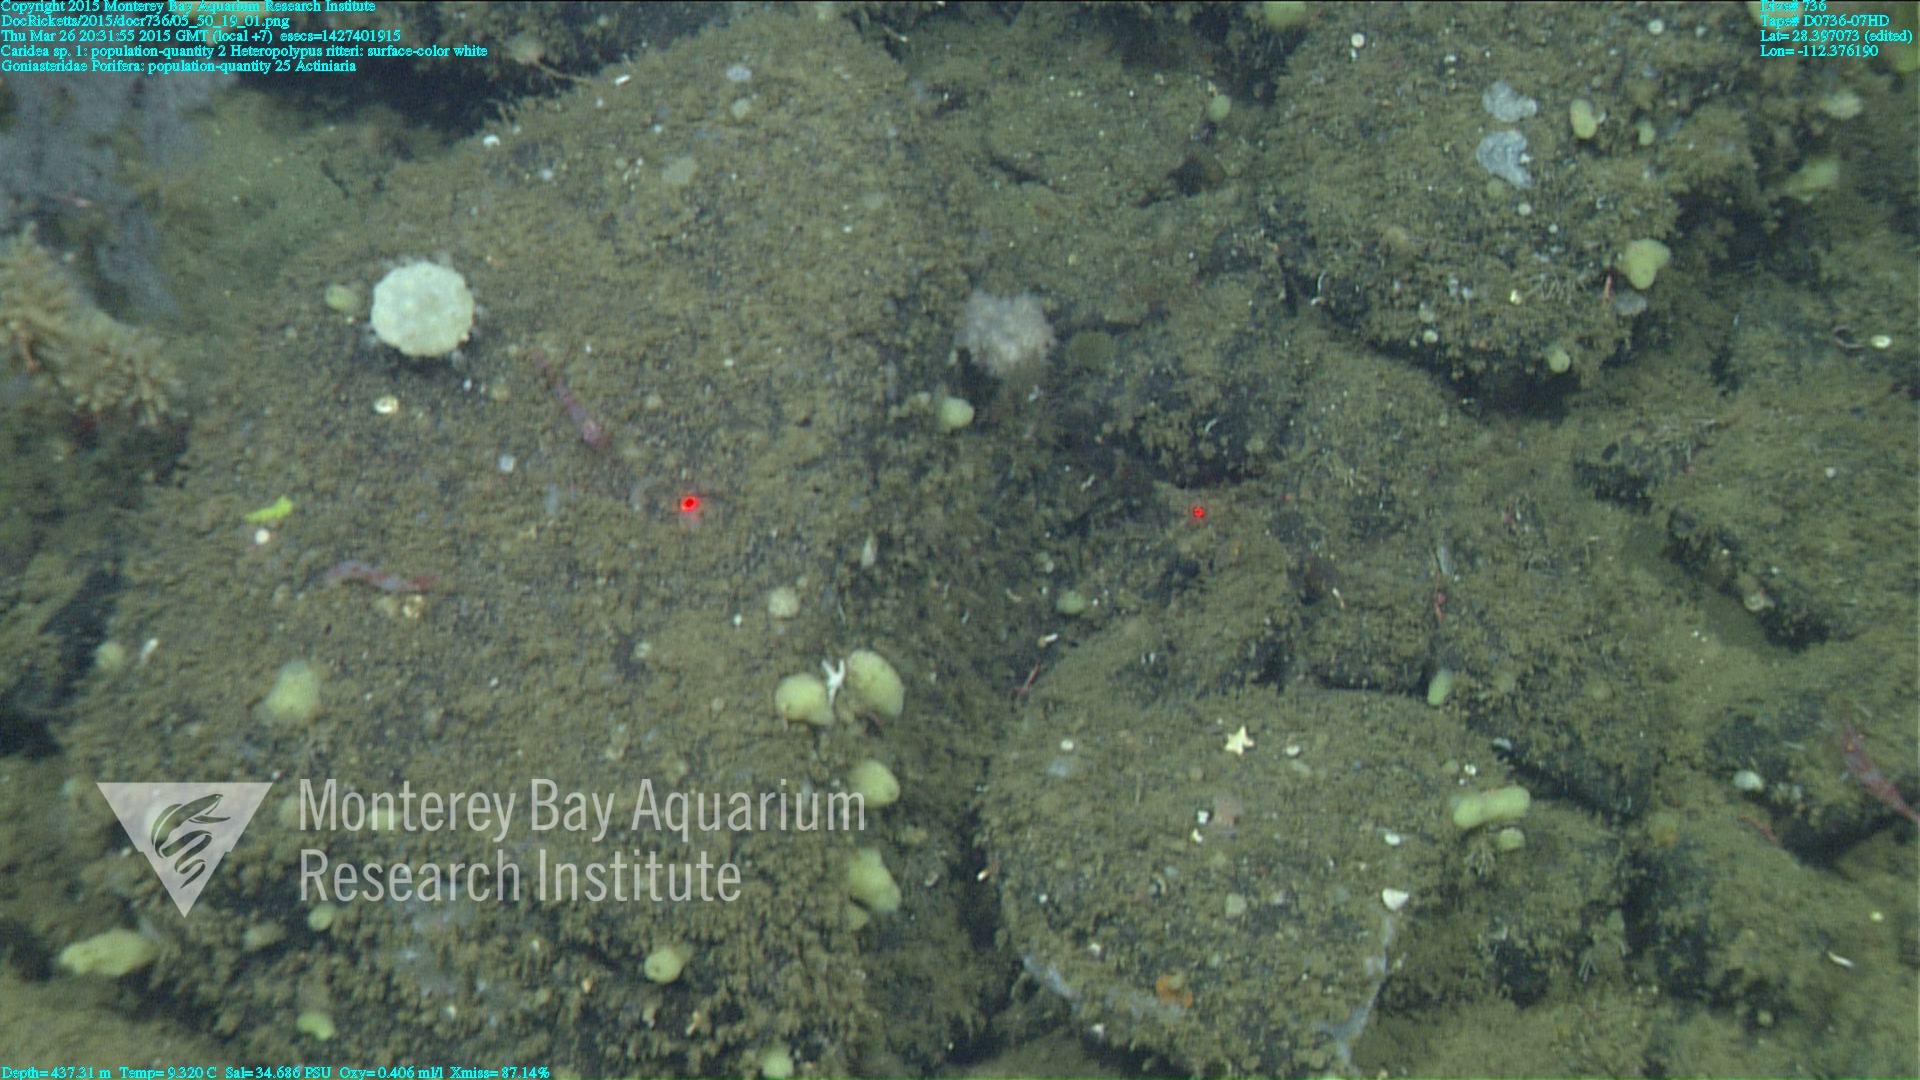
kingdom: Animalia
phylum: Cnidaria
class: Anthozoa
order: Scleralcyonacea
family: Coralliidae
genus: Heteropolypus
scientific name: Heteropolypus ritteri
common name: Ritter's soft coral
